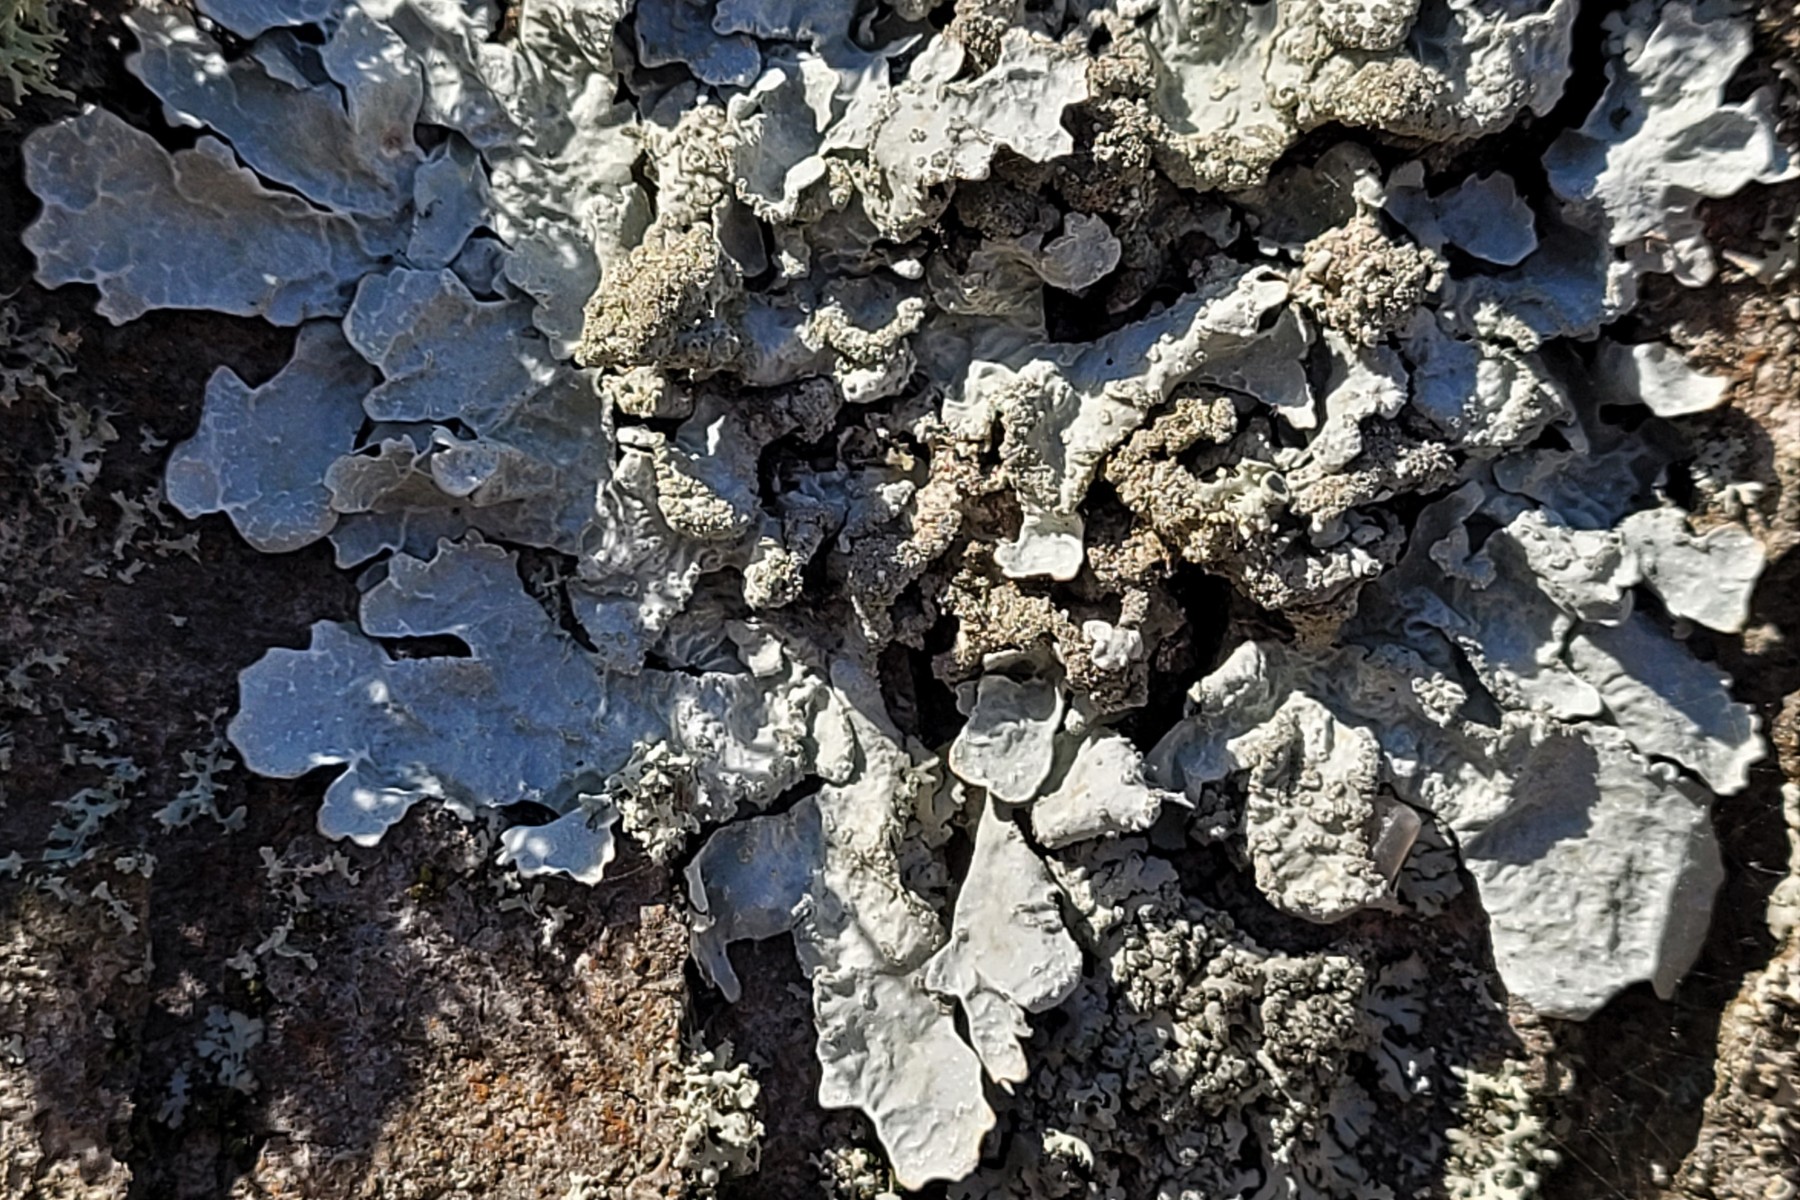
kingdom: Fungi
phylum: Ascomycota
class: Lecanoromycetes
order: Lecanorales
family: Parmeliaceae
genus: Parmelia
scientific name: Parmelia sulcata
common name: rynket skållav
